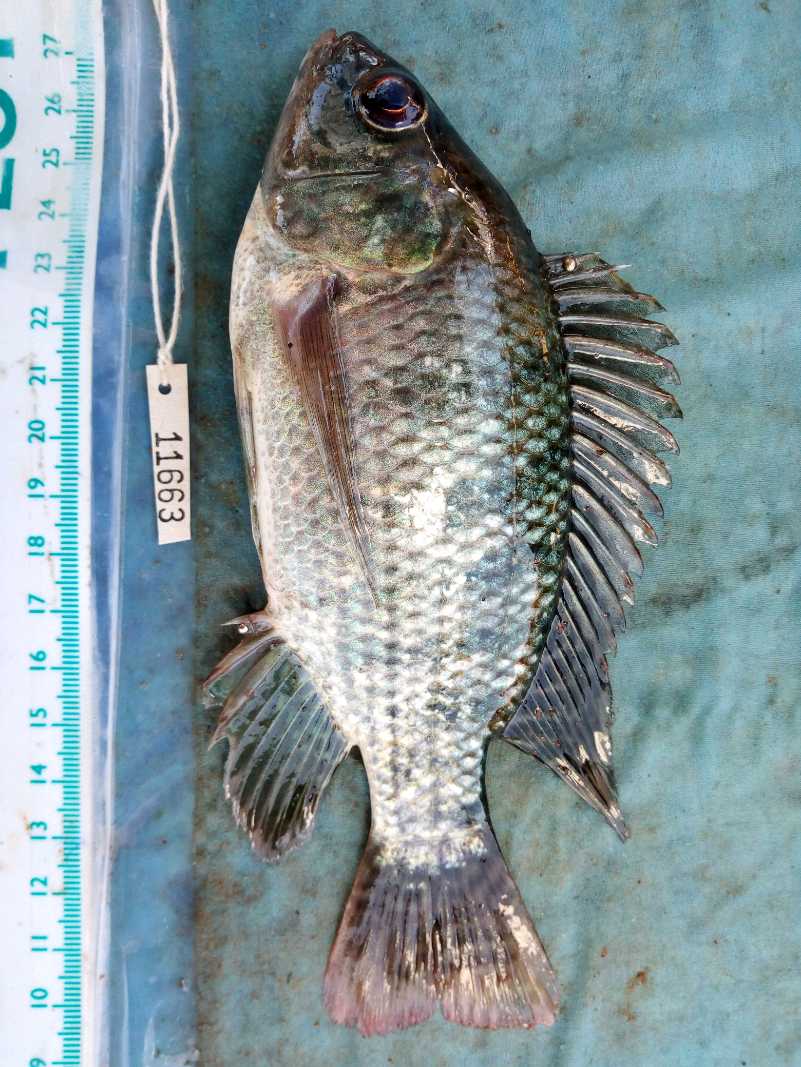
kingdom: Animalia
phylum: Chordata
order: Perciformes
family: Cichlidae
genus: Oreochromis
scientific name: Oreochromis niloticus
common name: Nile tilapia
